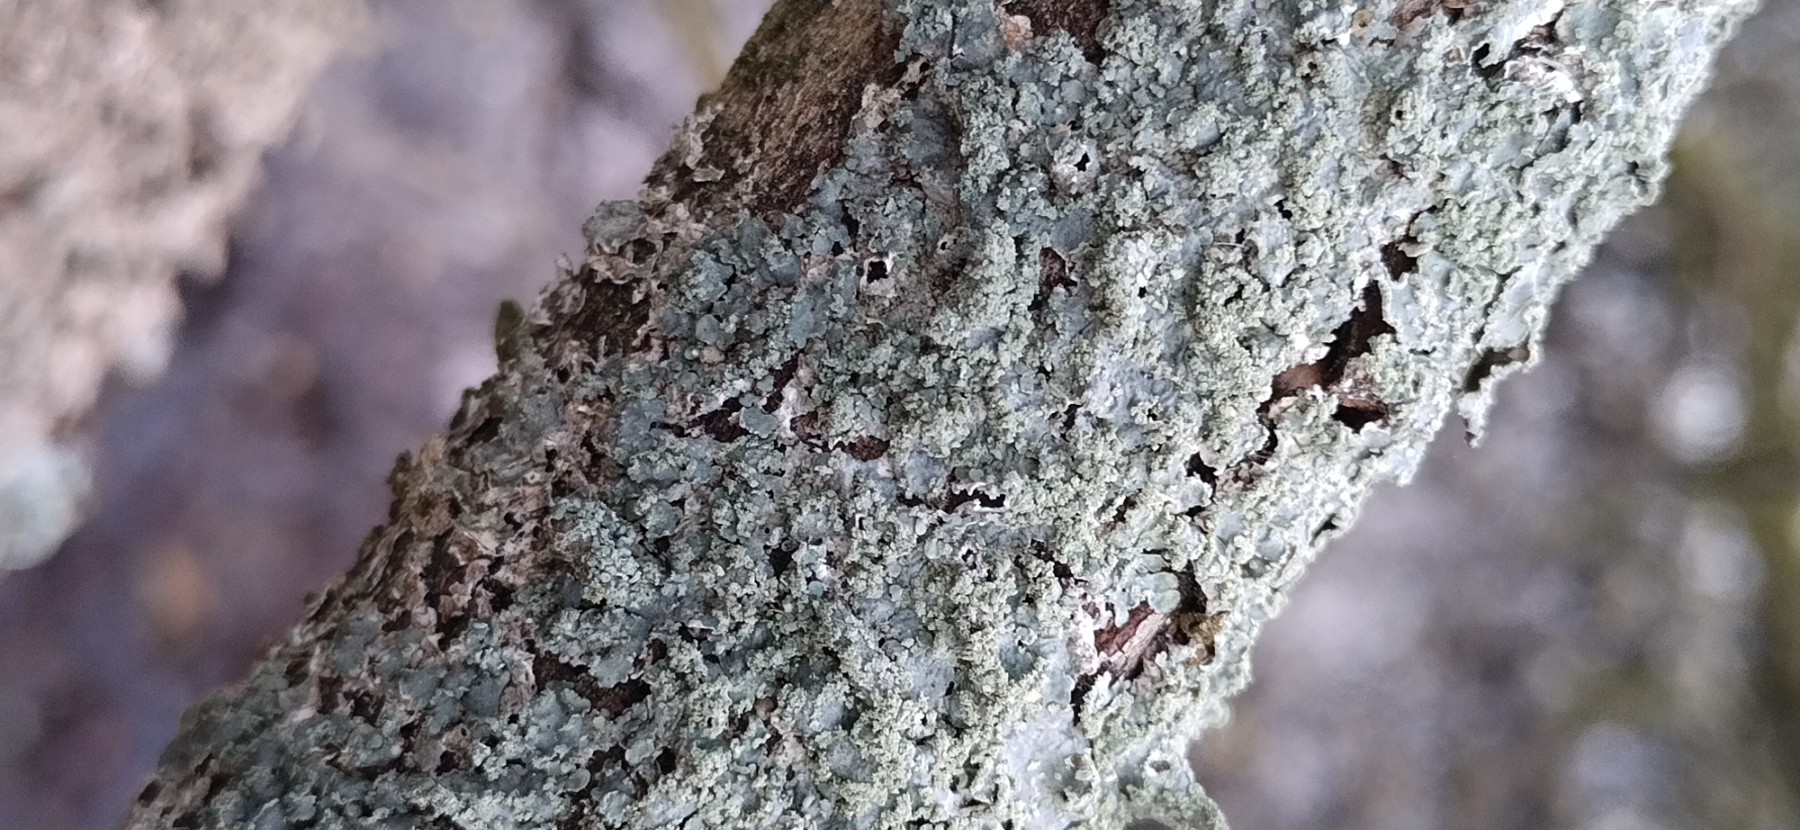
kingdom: Fungi
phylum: Ascomycota
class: Lecanoromycetes
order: Lecanorales
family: Parmeliaceae
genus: Punctelia
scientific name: Punctelia subrudecta
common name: punkt-skållav
